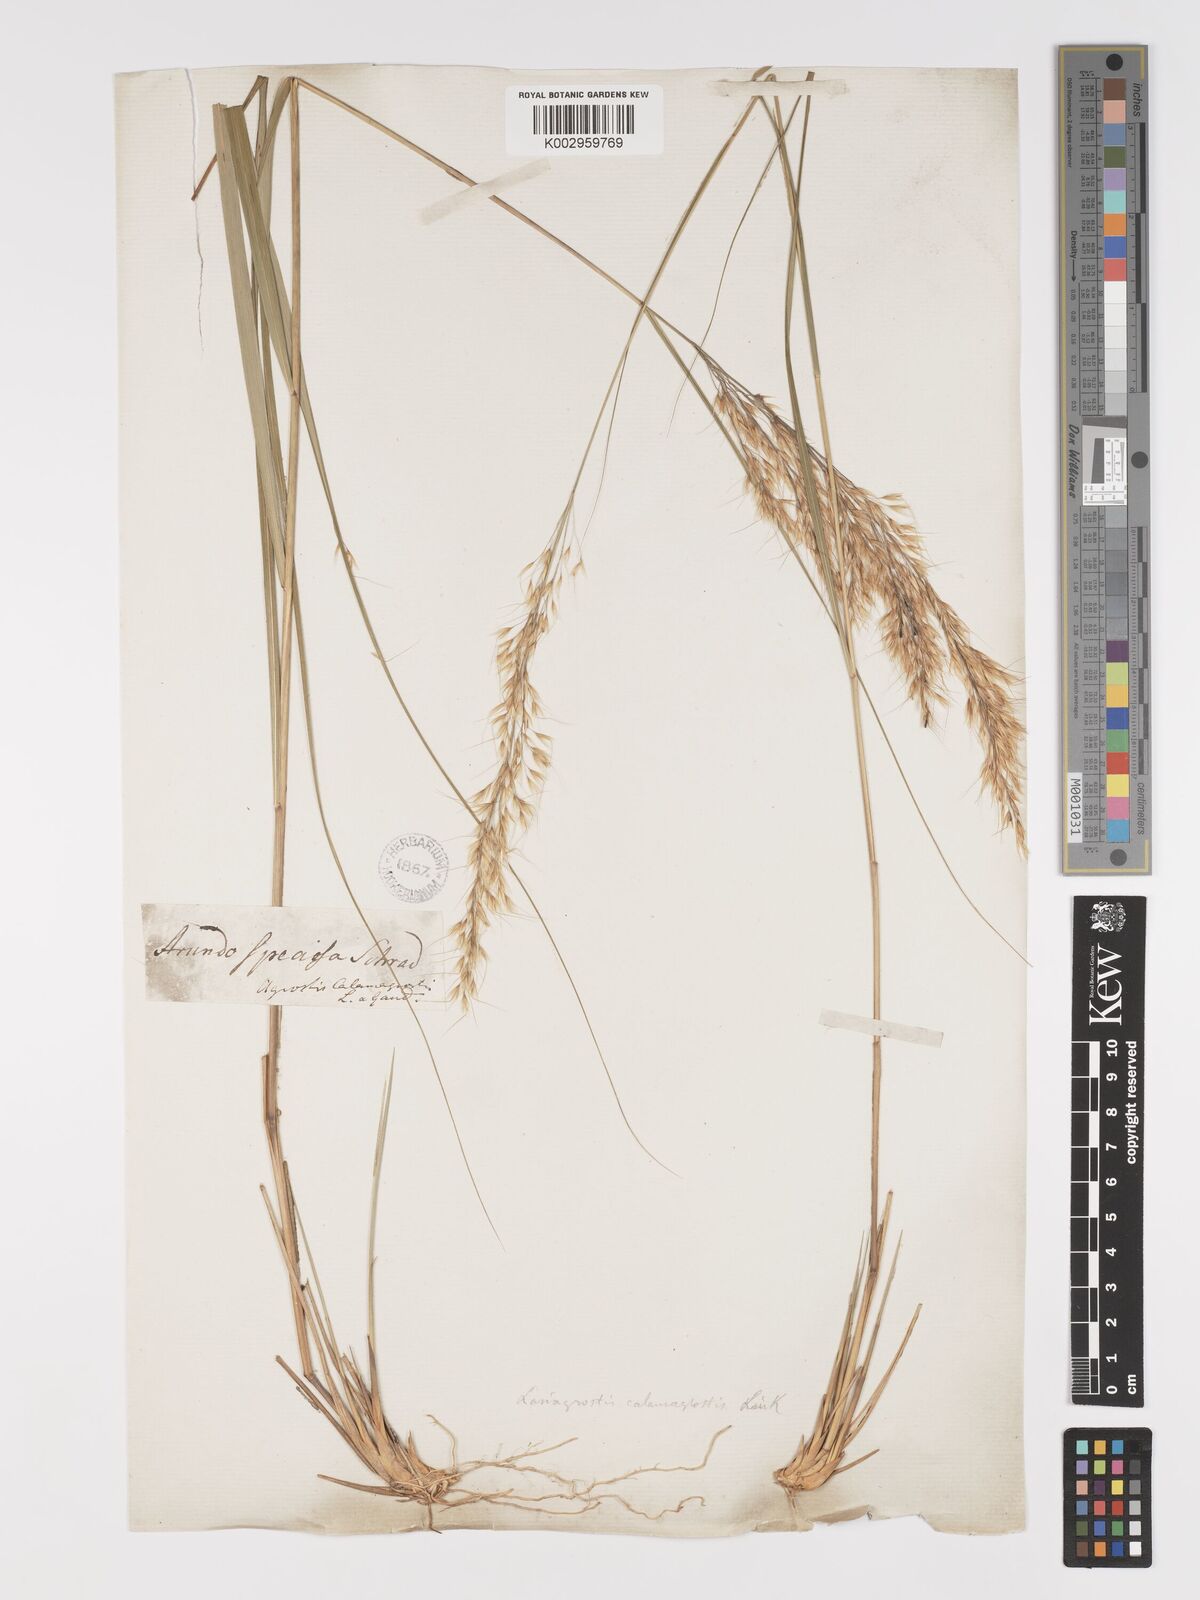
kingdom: Plantae
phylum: Tracheophyta
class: Liliopsida
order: Poales
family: Poaceae
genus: Achnatherum
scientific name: Achnatherum calamagrostis
